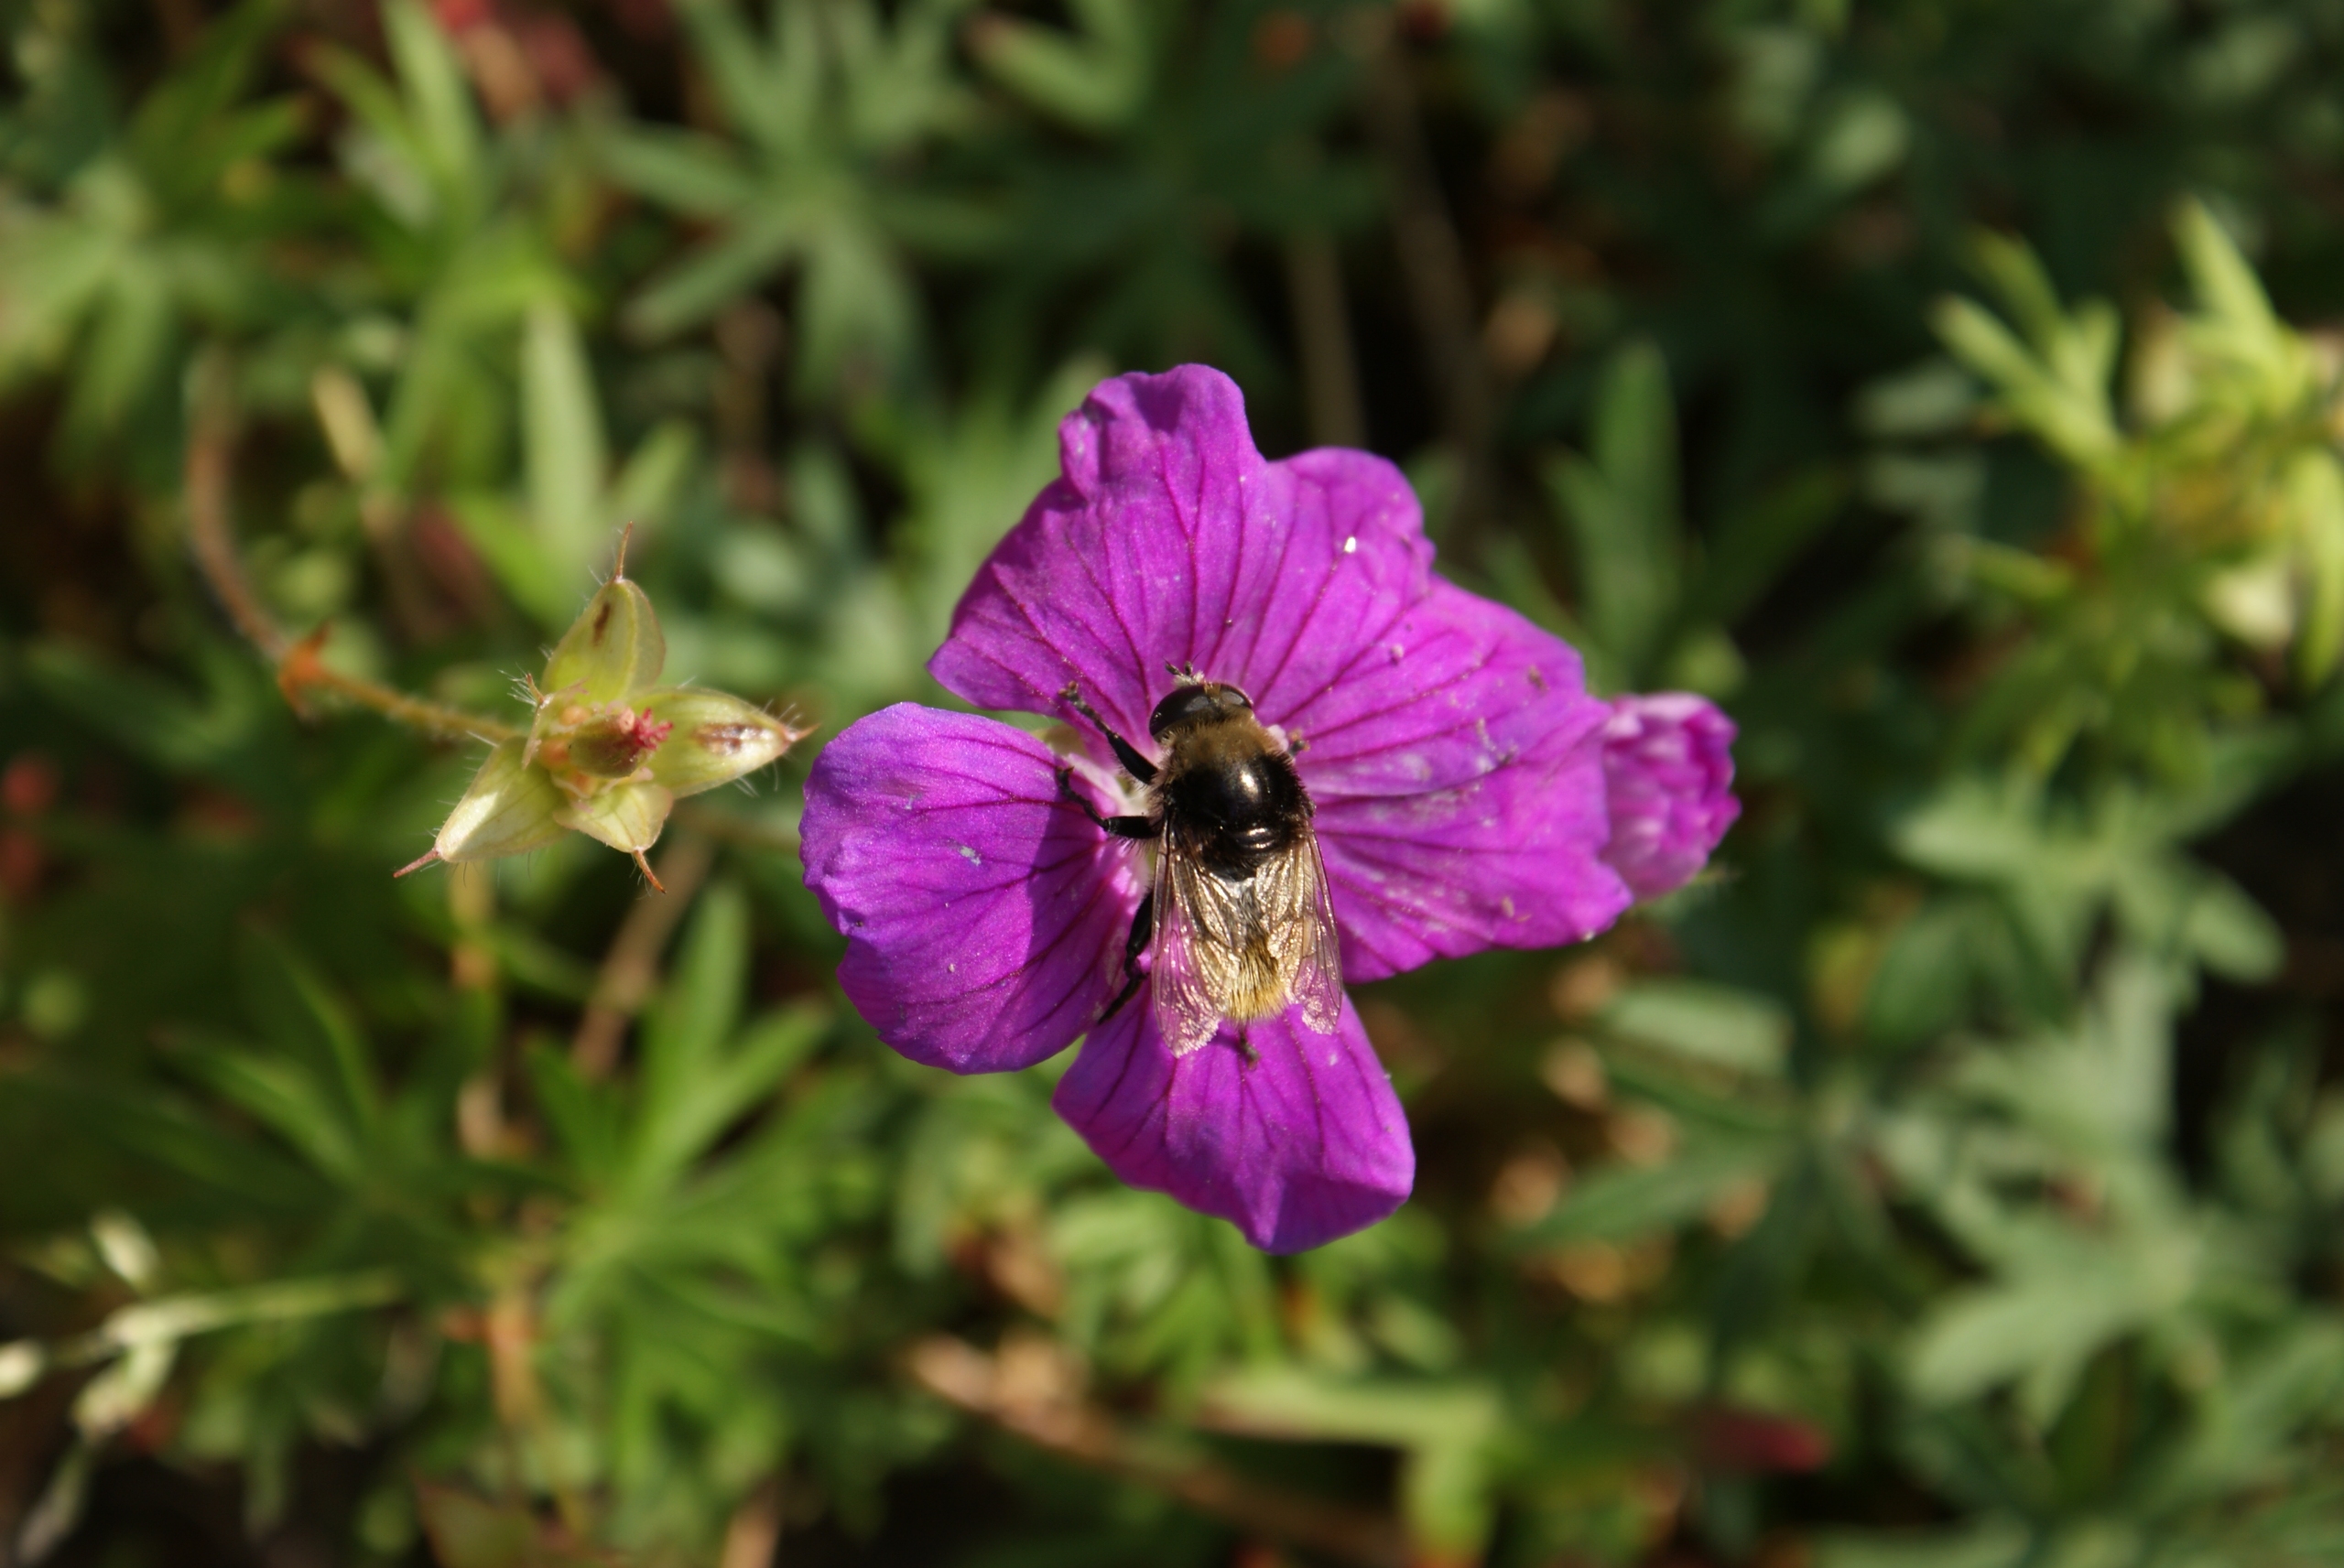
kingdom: Animalia
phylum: Arthropoda
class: Insecta
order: Diptera
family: Syrphidae
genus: Merodon
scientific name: Merodon equestris
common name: Stor narcisflue
